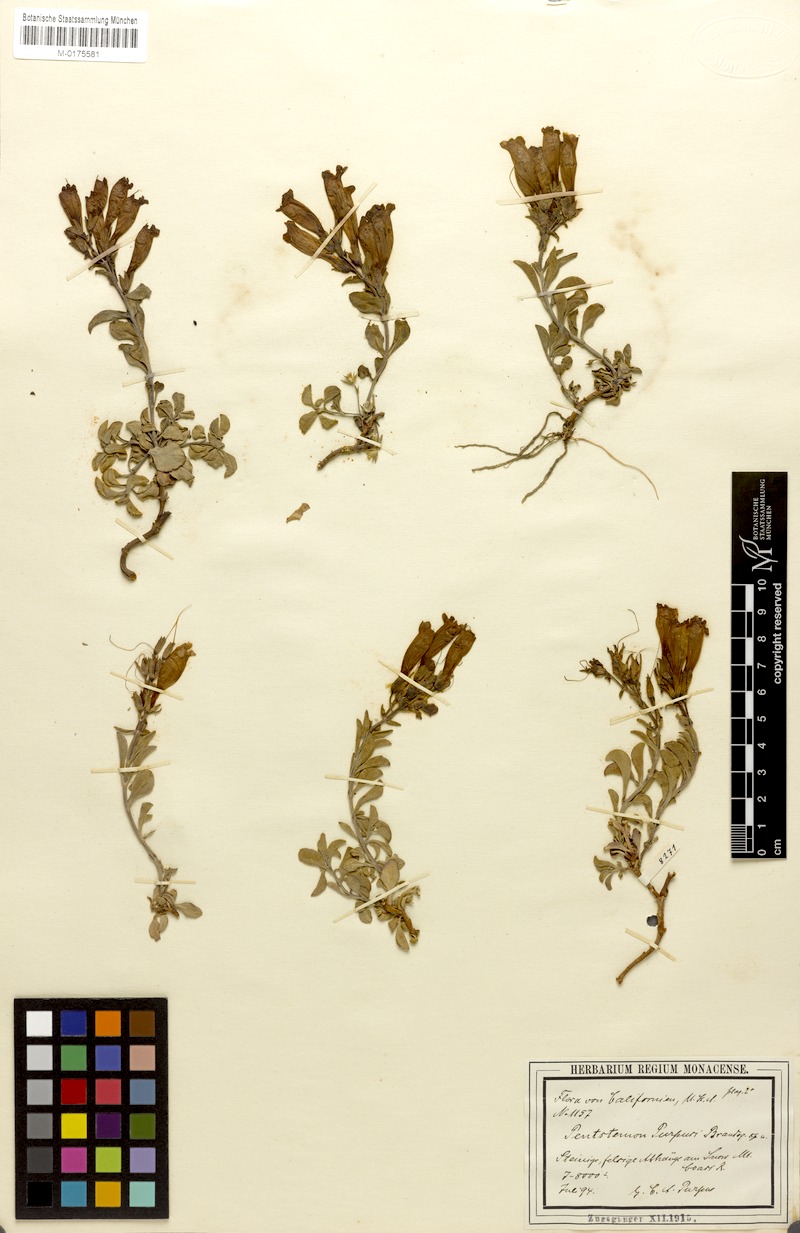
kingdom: Plantae
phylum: Tracheophyta
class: Magnoliopsida
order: Lamiales
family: Plantaginaceae
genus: Penstemon
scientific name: Penstemon purpusii
